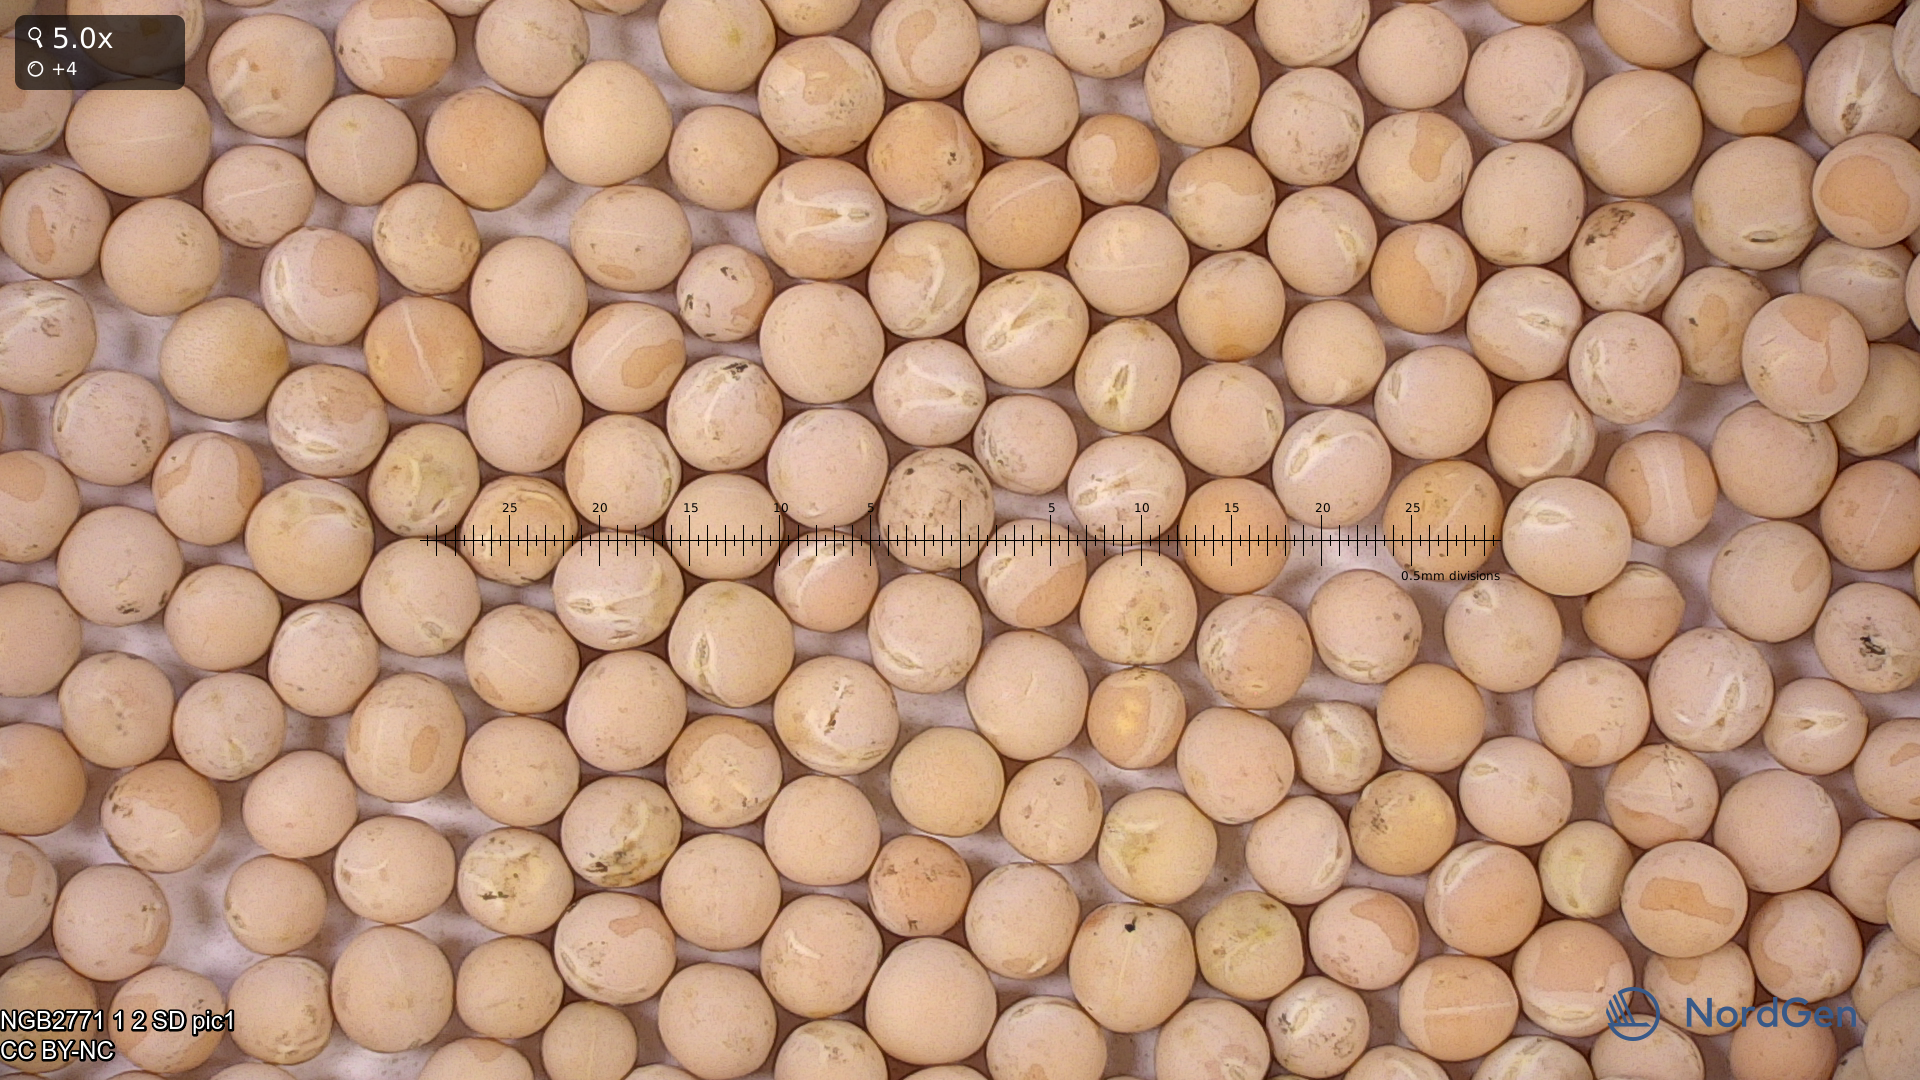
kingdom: Plantae
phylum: Tracheophyta
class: Magnoliopsida
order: Fabales
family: Fabaceae
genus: Lathyrus
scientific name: Lathyrus oleraceus
